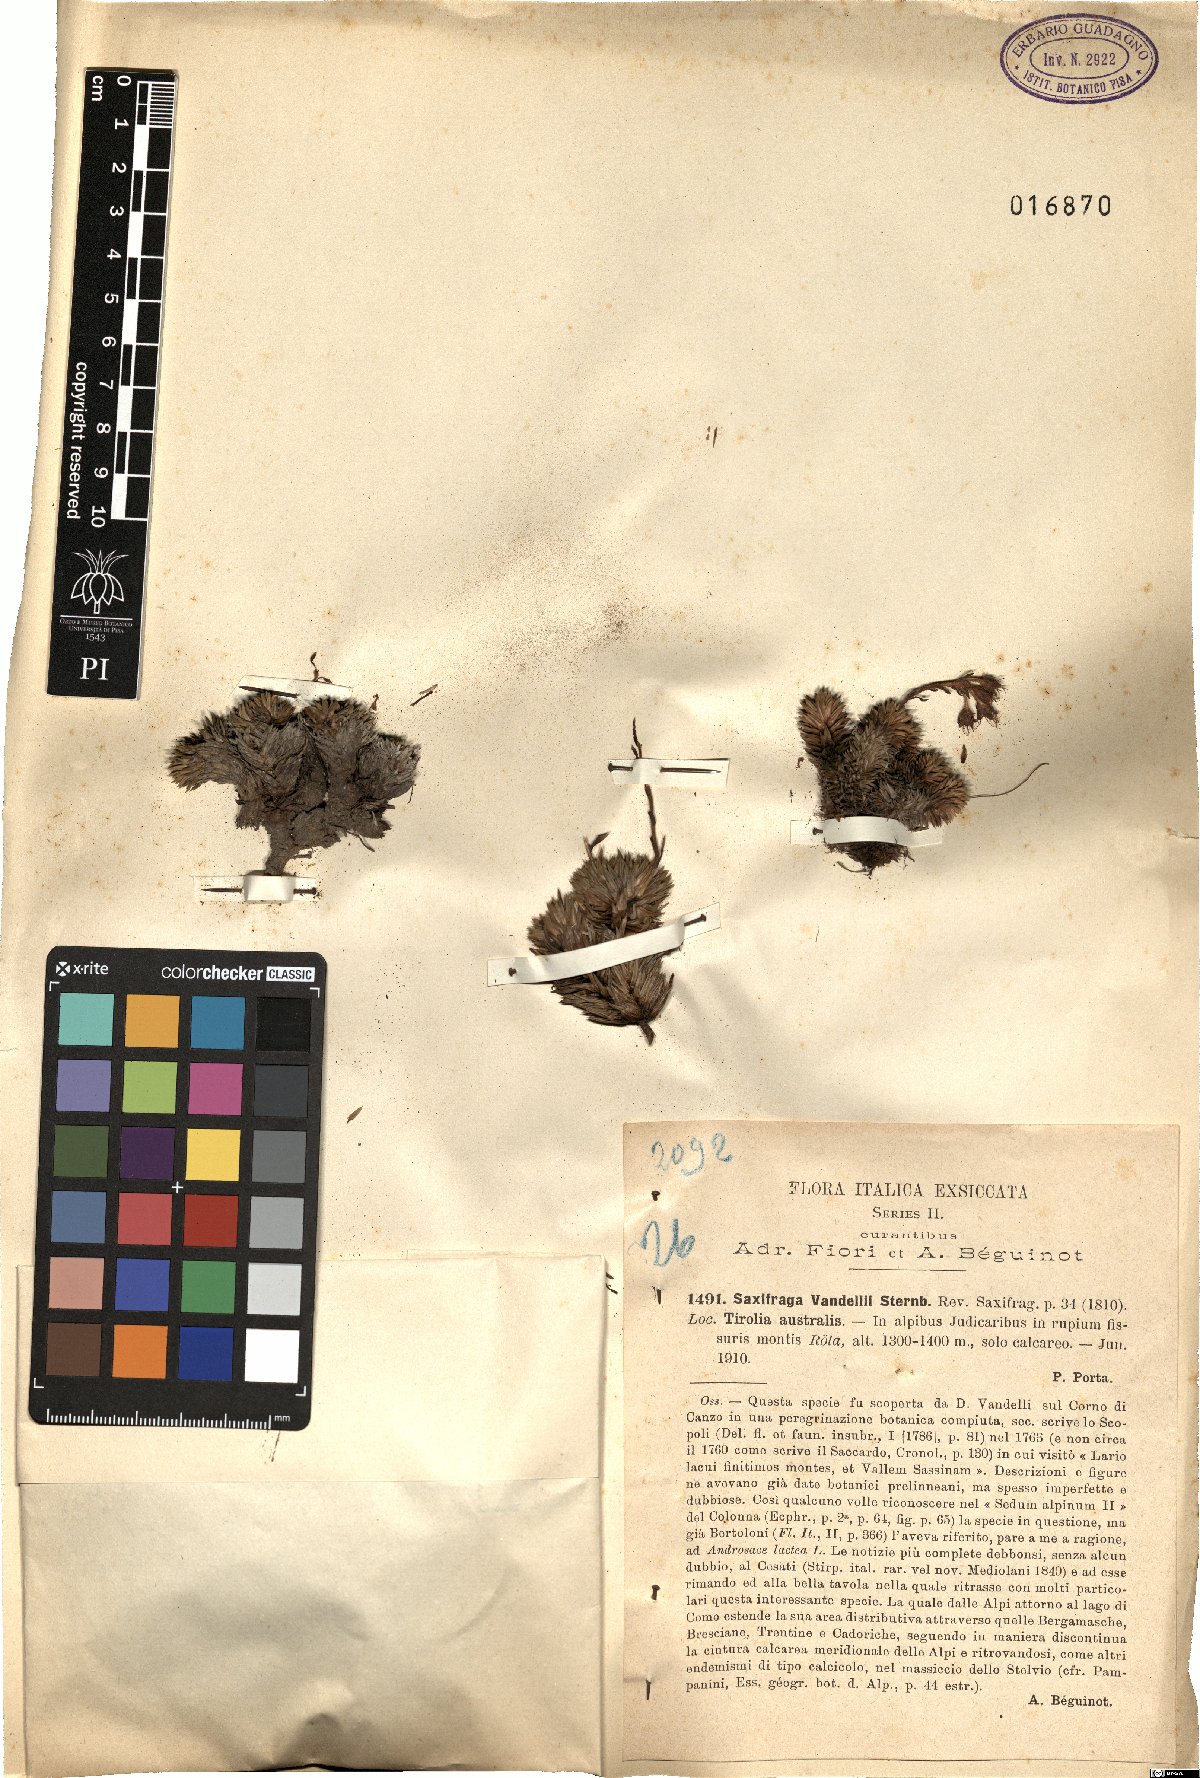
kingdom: Plantae
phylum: Tracheophyta
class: Magnoliopsida
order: Saxifragales
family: Saxifragaceae
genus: Saxifraga
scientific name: Saxifraga vandelii
